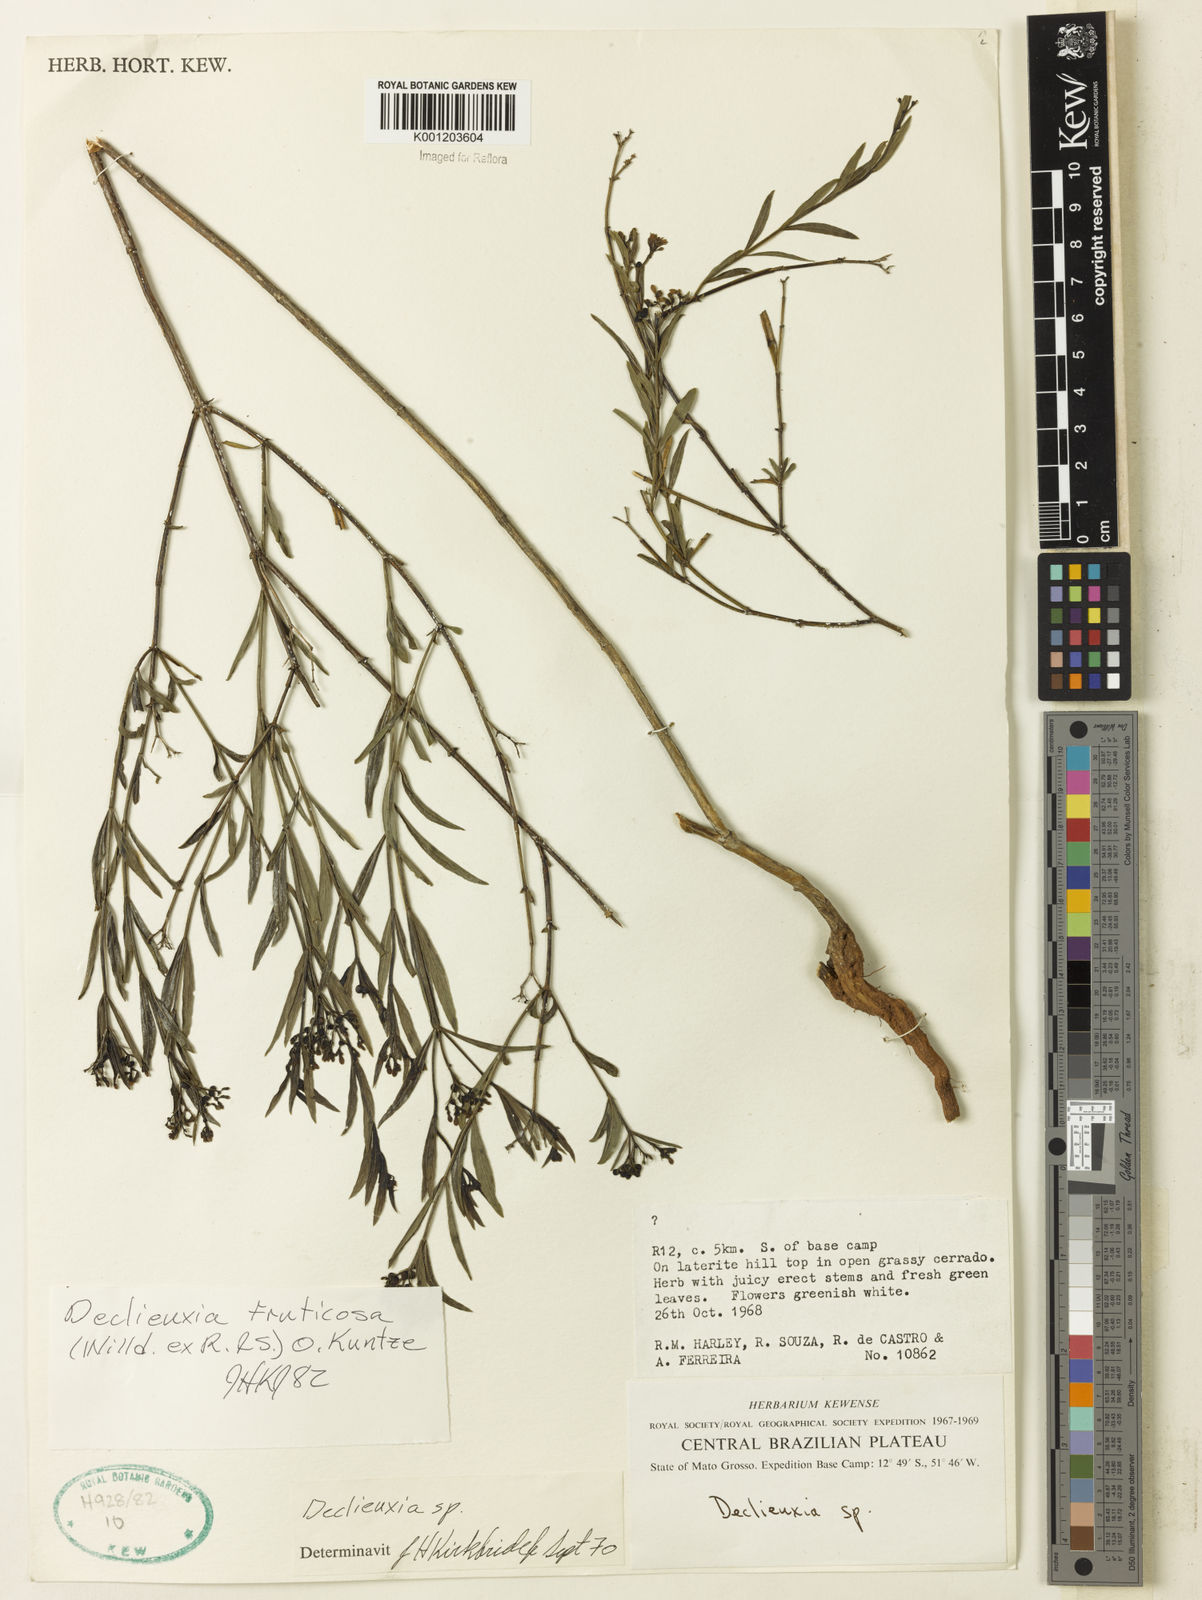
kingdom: Plantae
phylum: Tracheophyta
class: Magnoliopsida
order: Gentianales
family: Rubiaceae
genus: Declieuxia
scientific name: Declieuxia fruticosa
